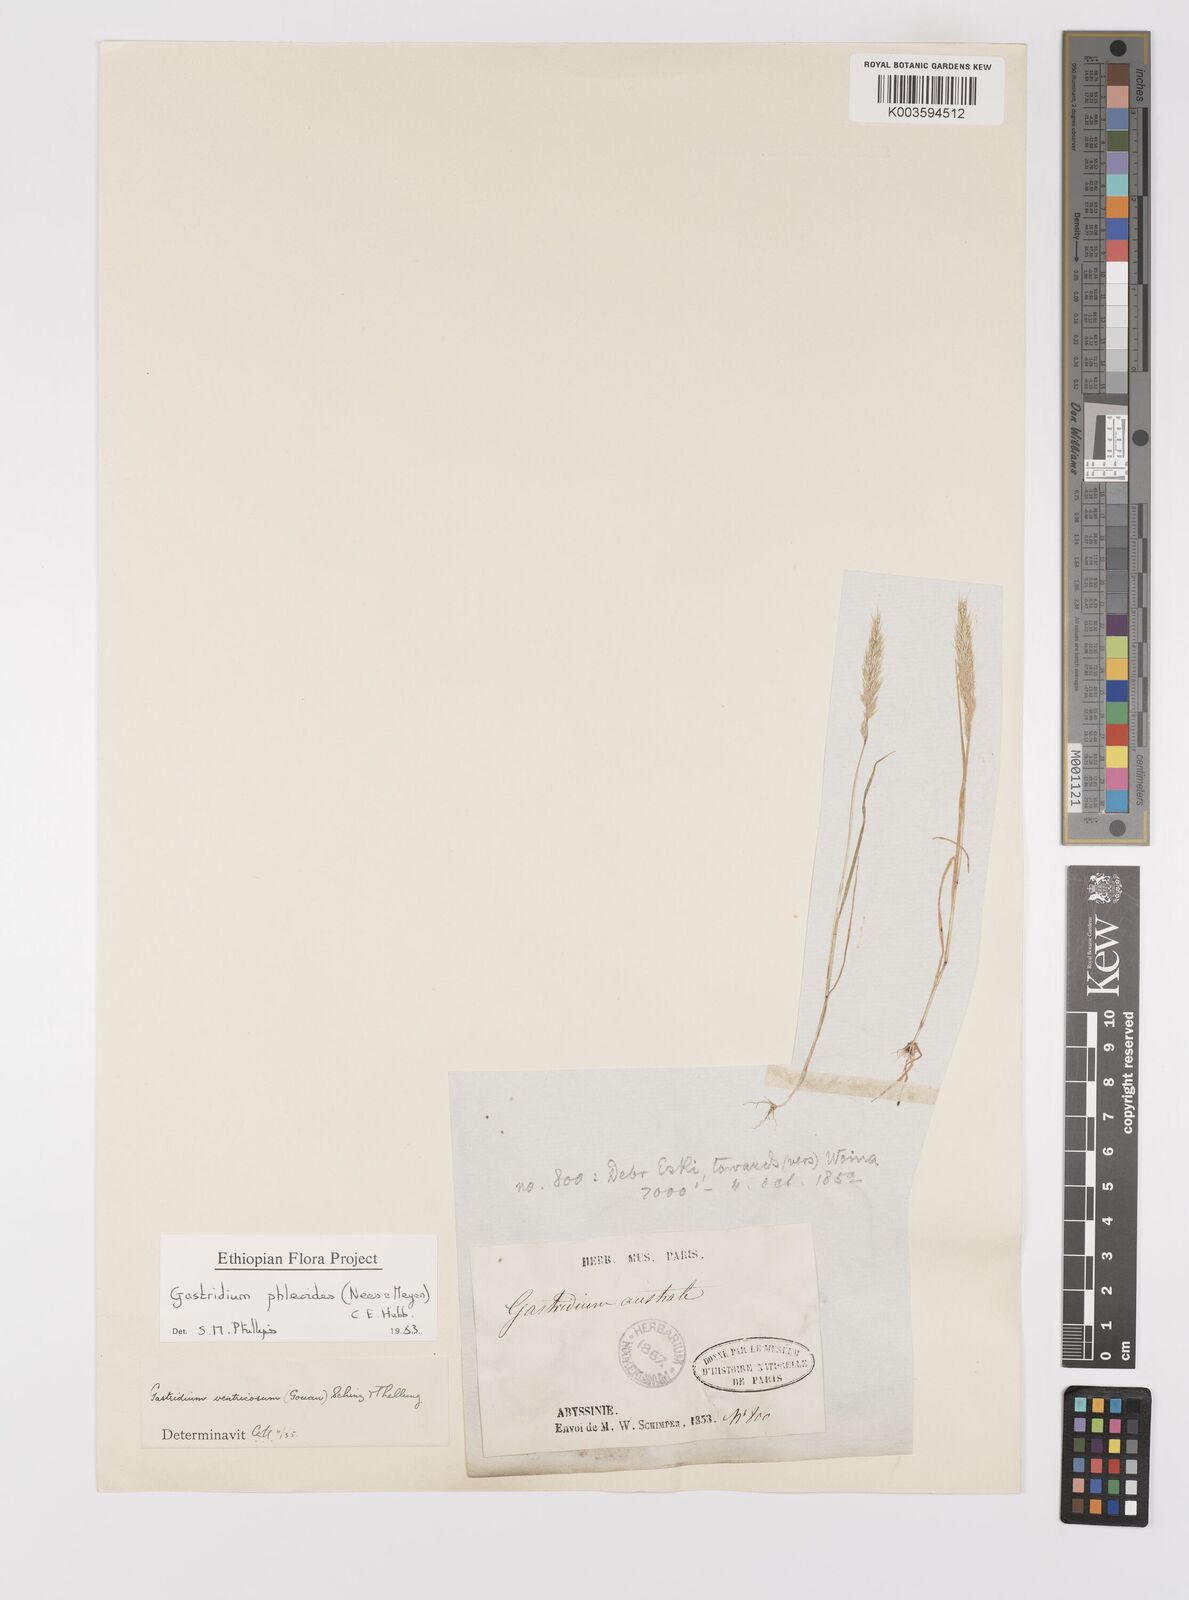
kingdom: Plantae
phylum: Tracheophyta
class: Liliopsida
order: Poales
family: Poaceae
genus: Gastridium
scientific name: Gastridium phleoides
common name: Nit grass
